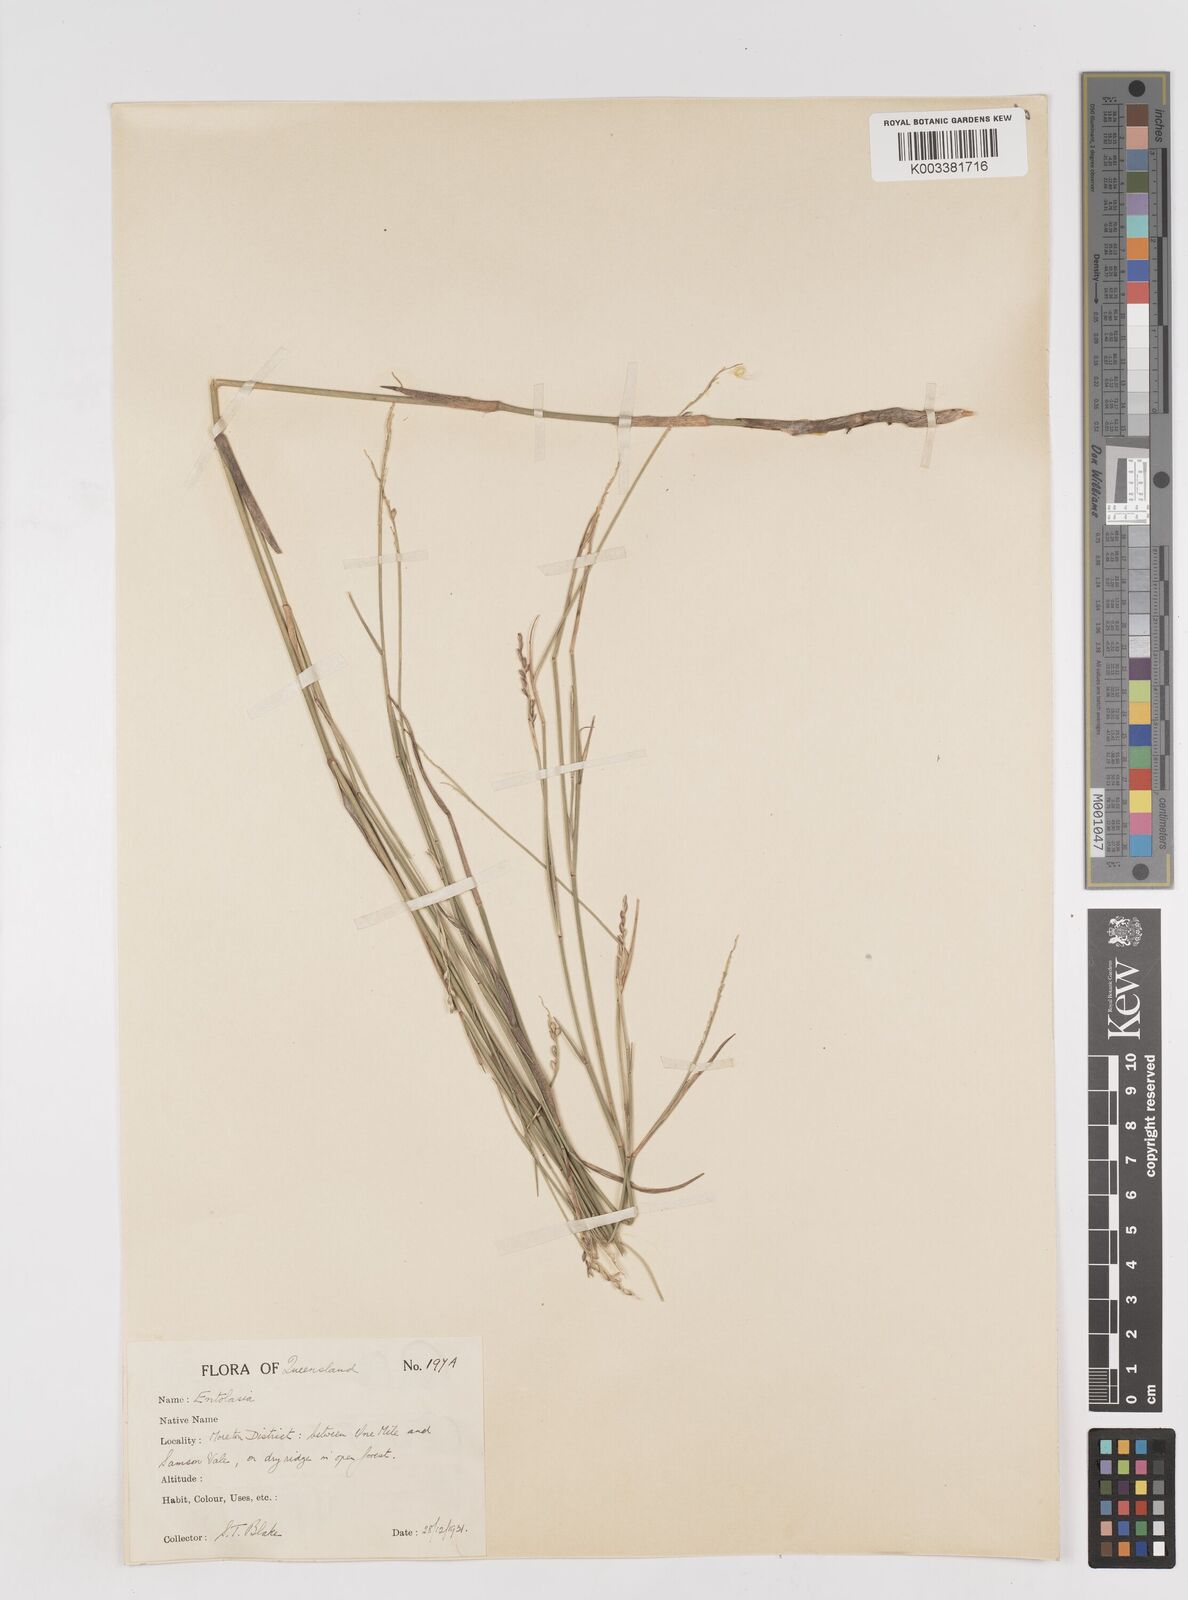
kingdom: Plantae
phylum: Tracheophyta
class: Liliopsida
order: Poales
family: Poaceae
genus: Entolasia
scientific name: Entolasia stricta
